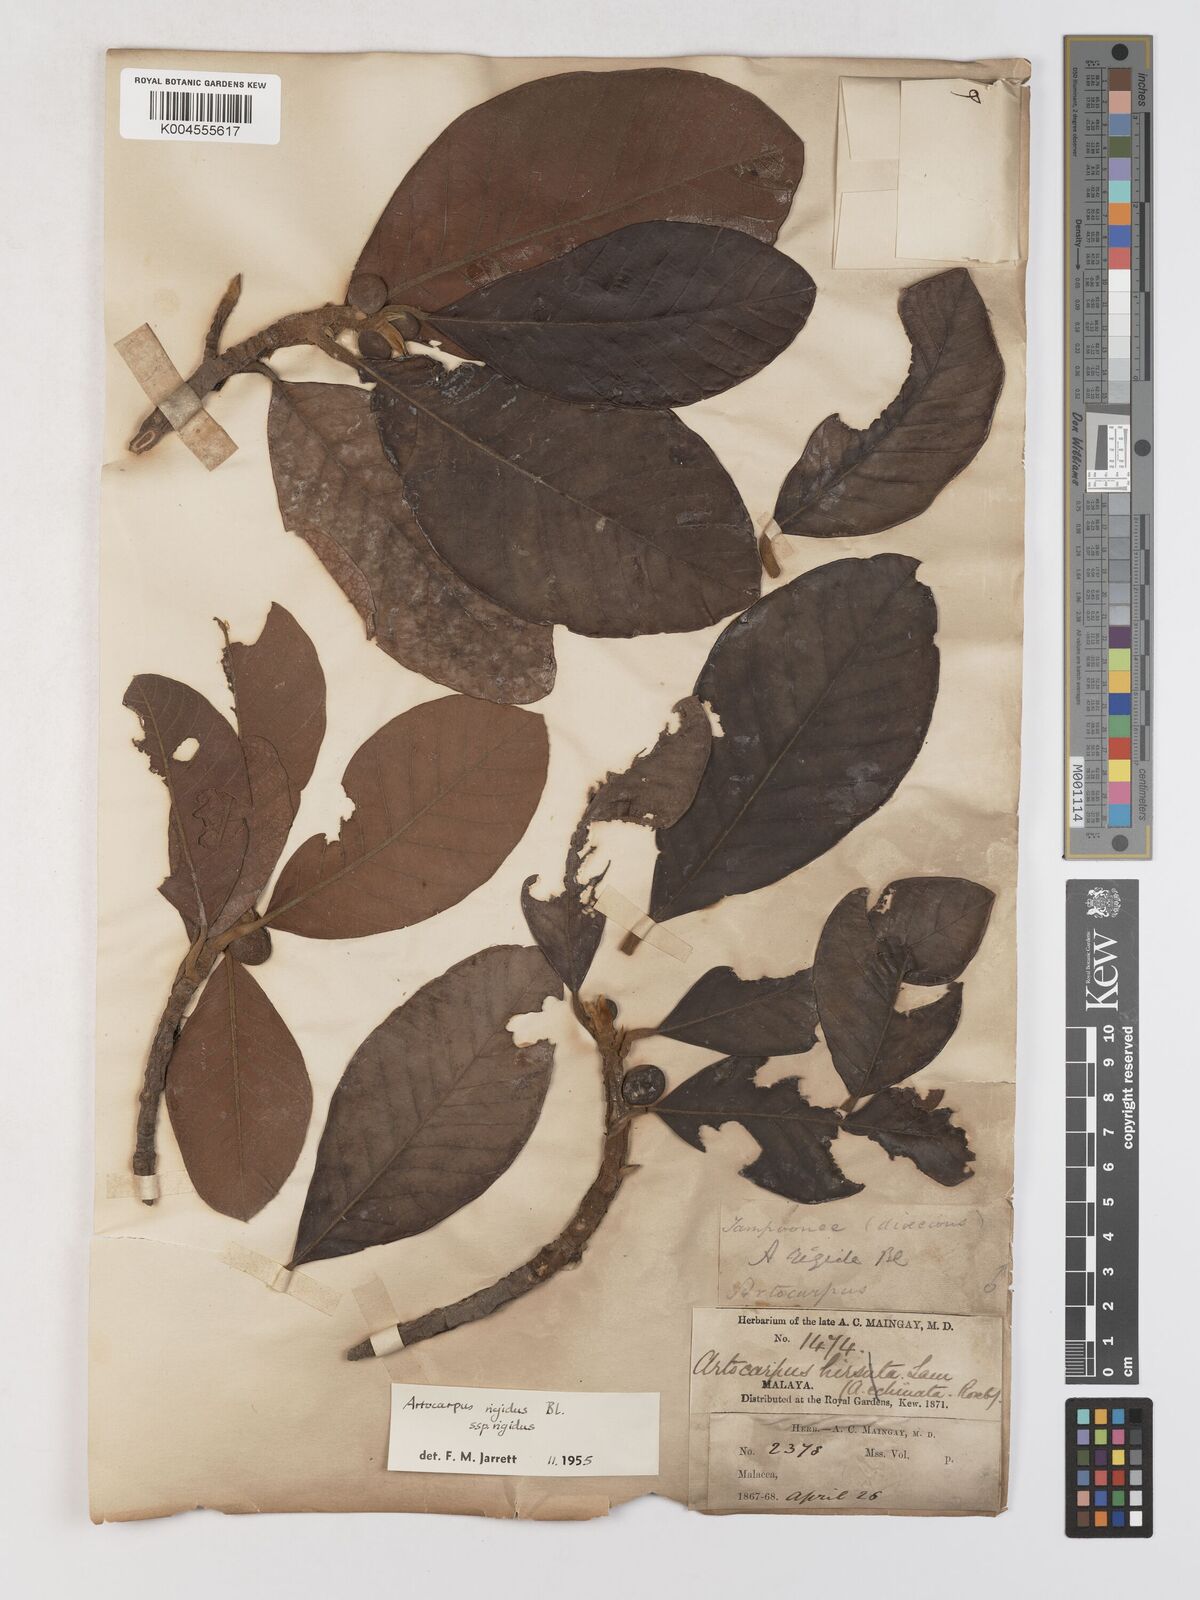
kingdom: Plantae
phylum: Tracheophyta
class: Magnoliopsida
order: Rosales
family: Moraceae
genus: Artocarpus
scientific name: Artocarpus
